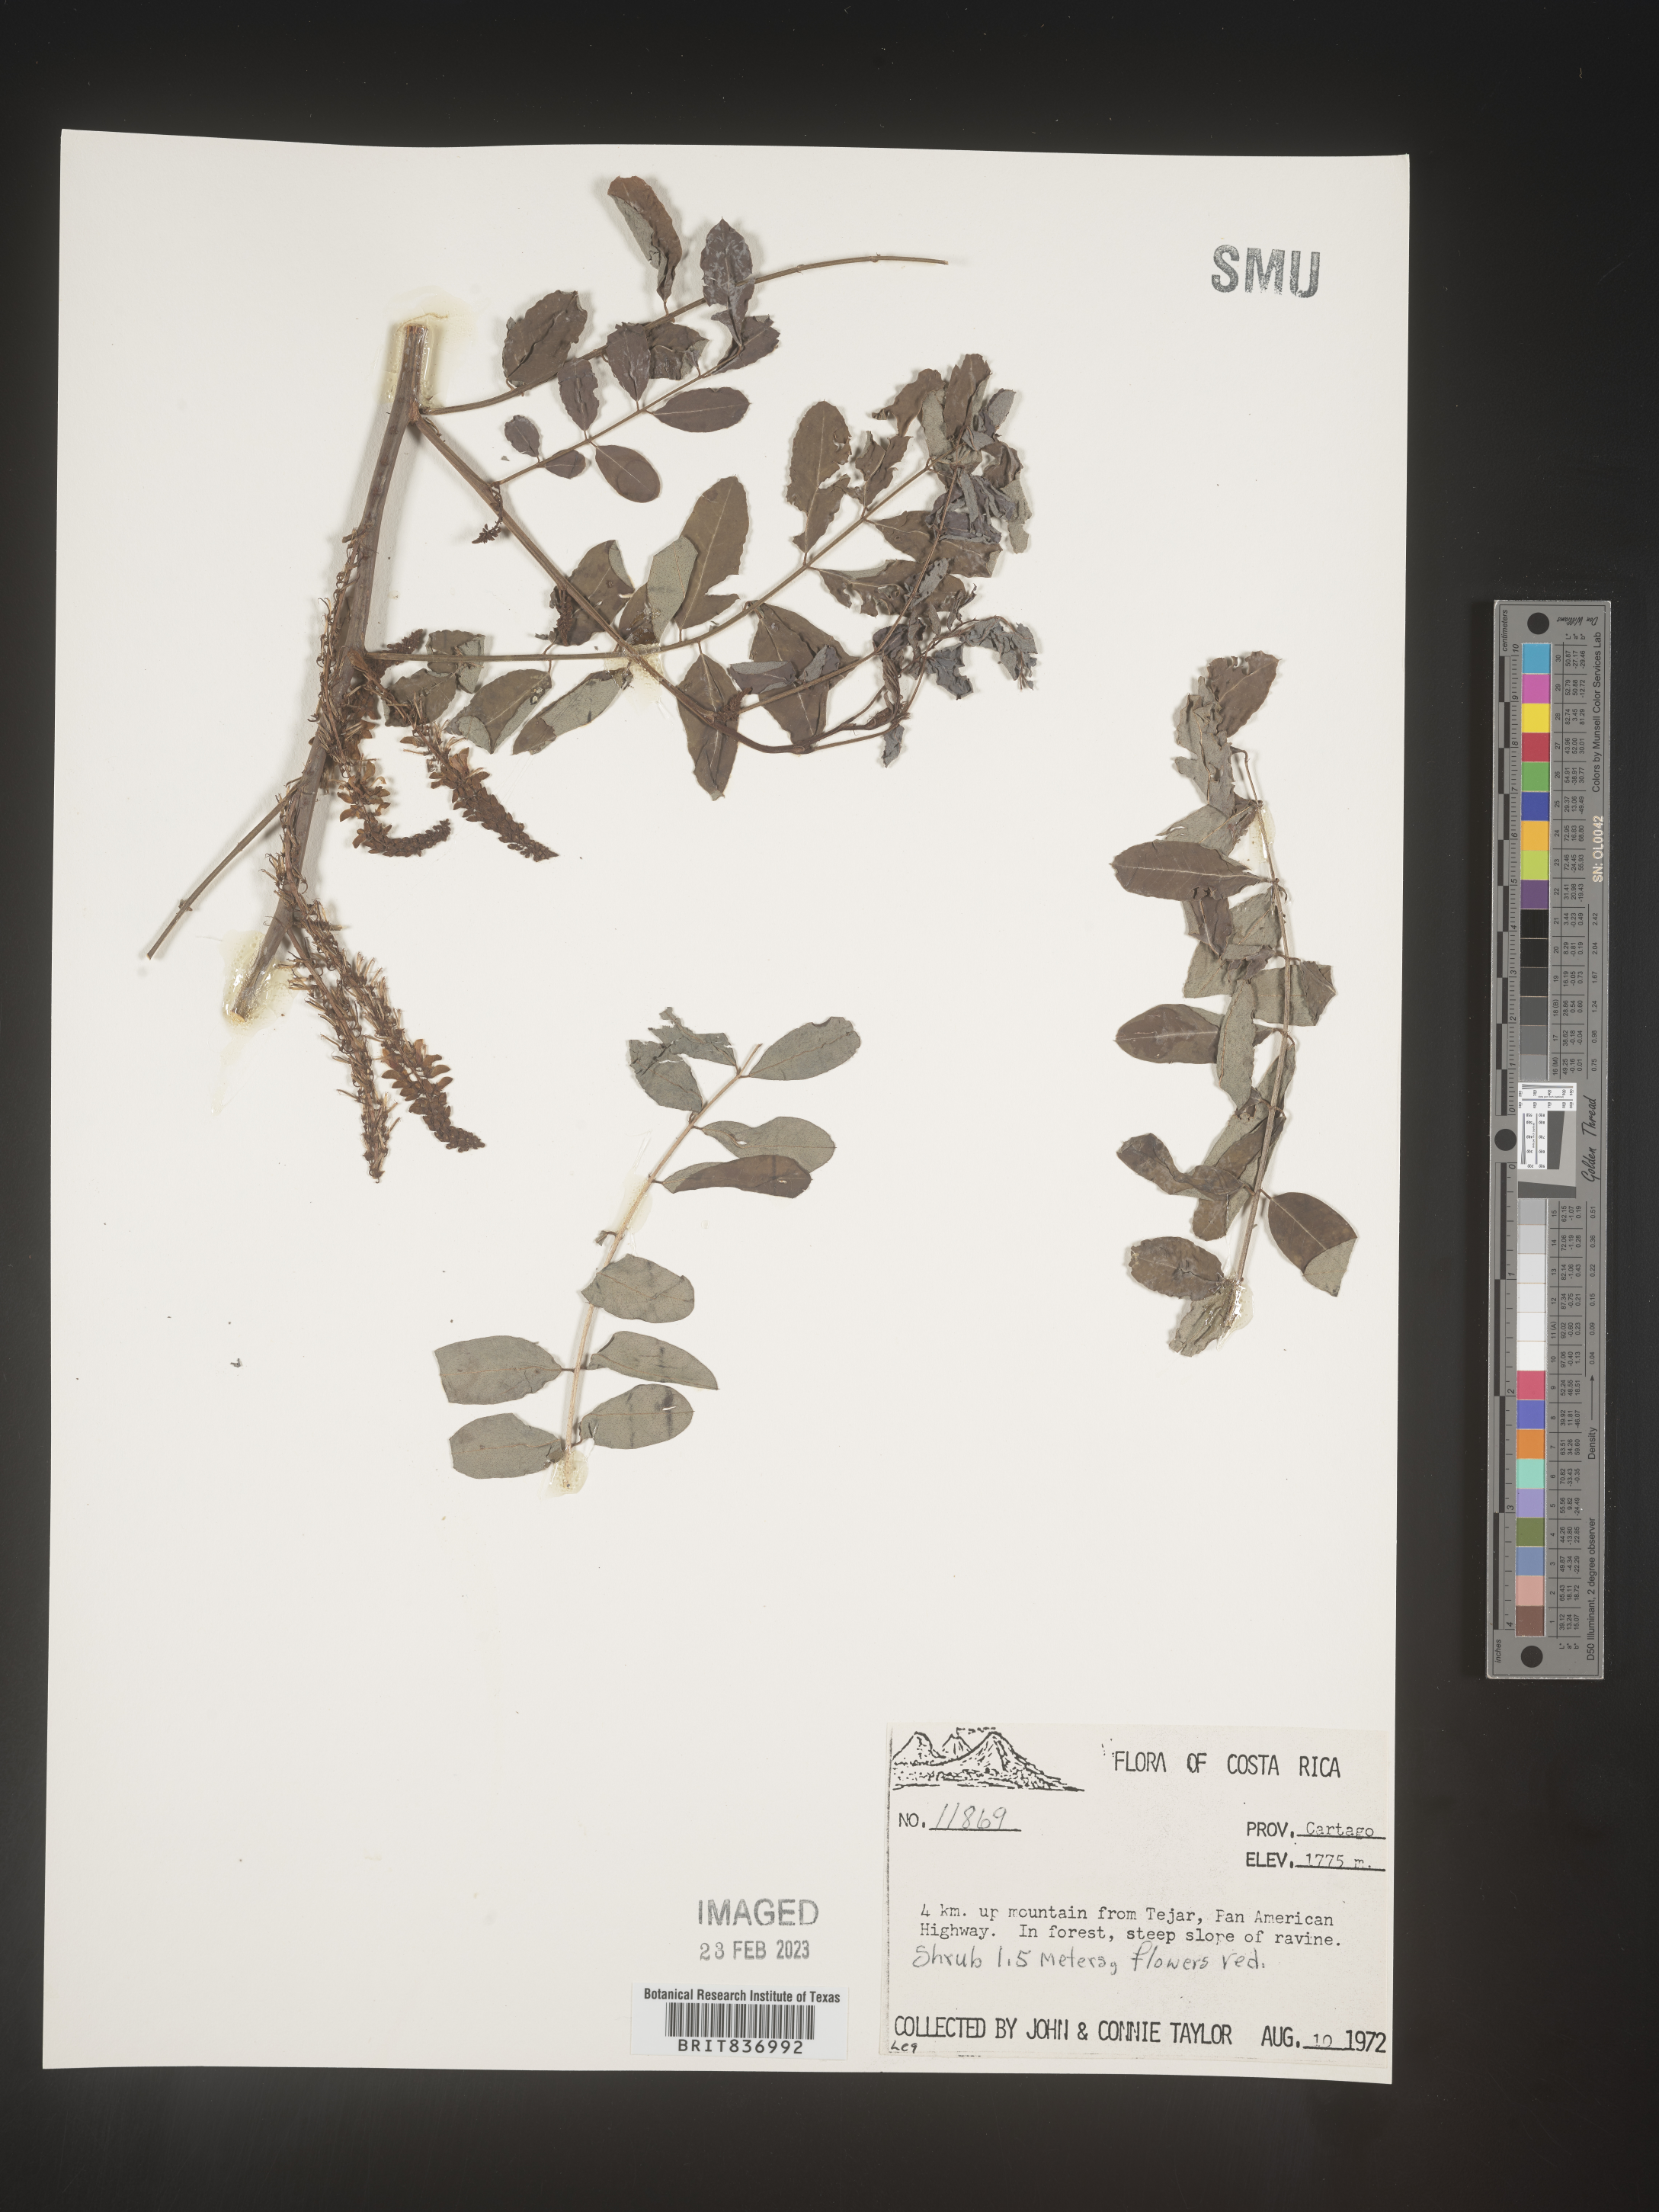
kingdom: Plantae
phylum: Tracheophyta
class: Magnoliopsida
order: Fabales
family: Fabaceae
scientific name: Fabaceae
